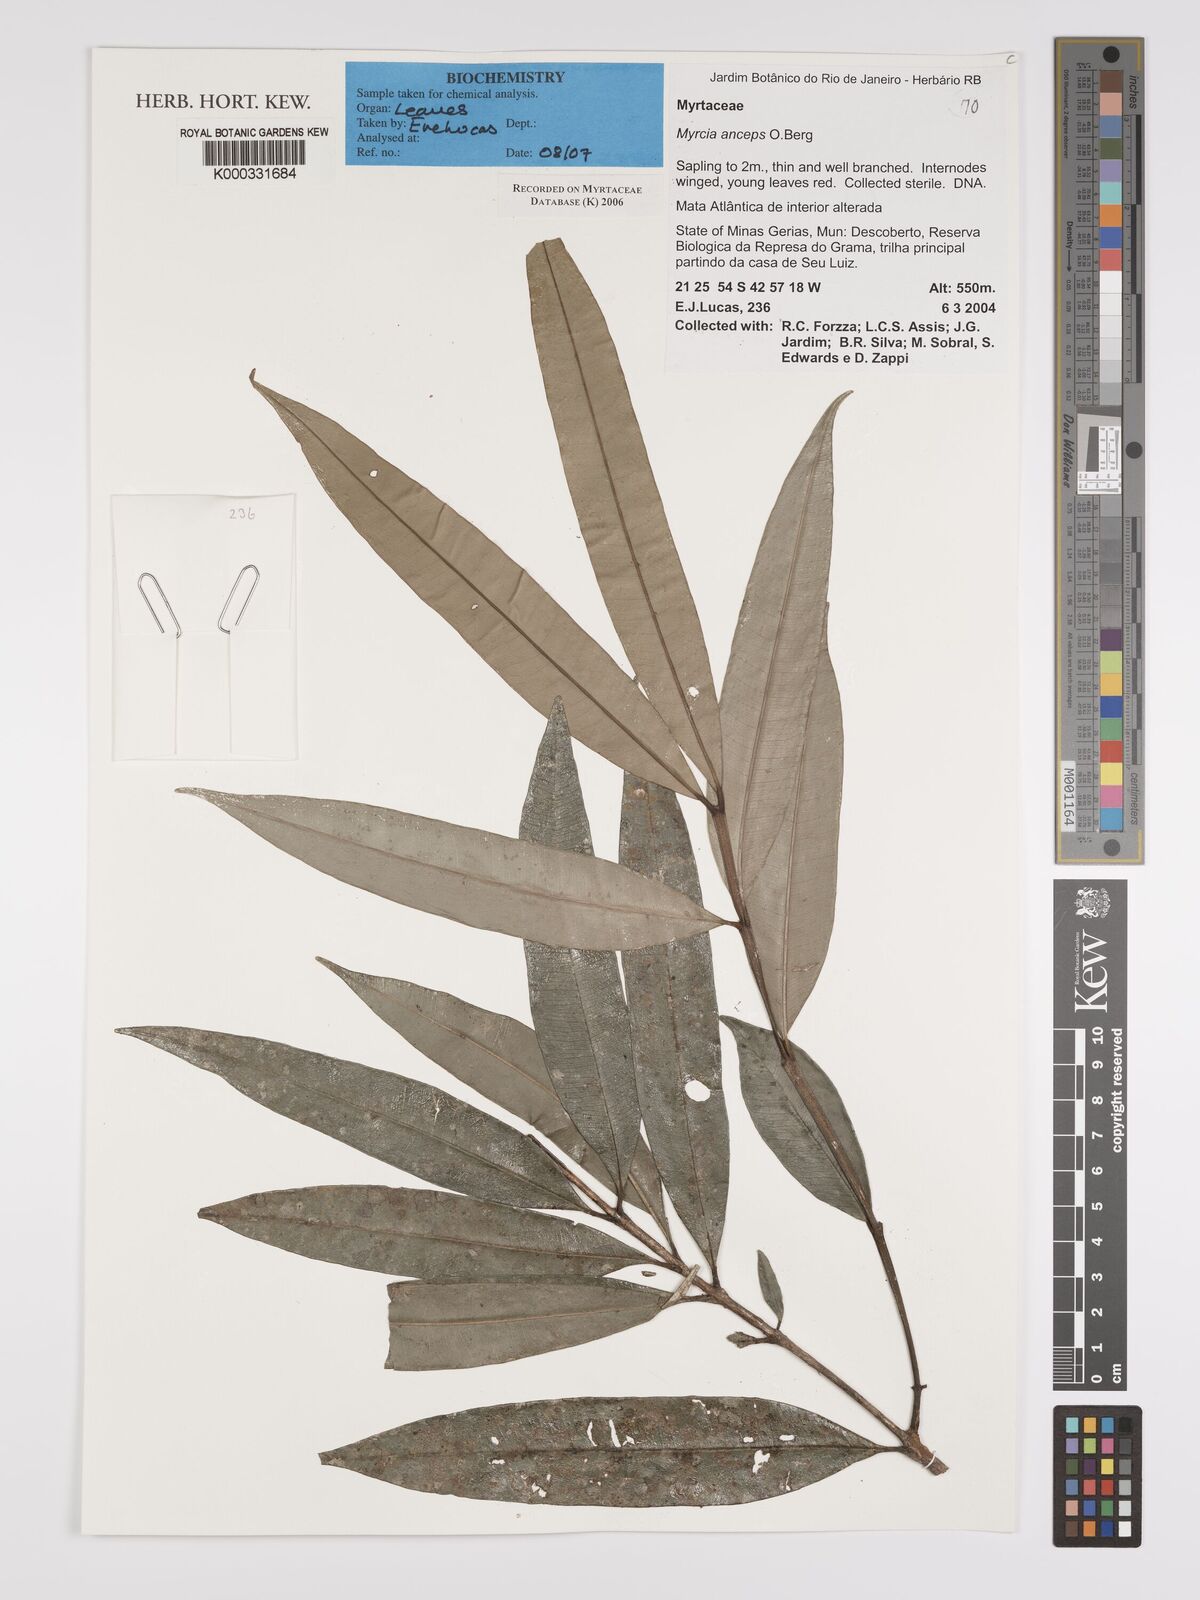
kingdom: Plantae
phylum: Tracheophyta
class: Magnoliopsida
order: Myrtales
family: Myrtaceae
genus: Myrcia
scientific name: Myrcia anceps
